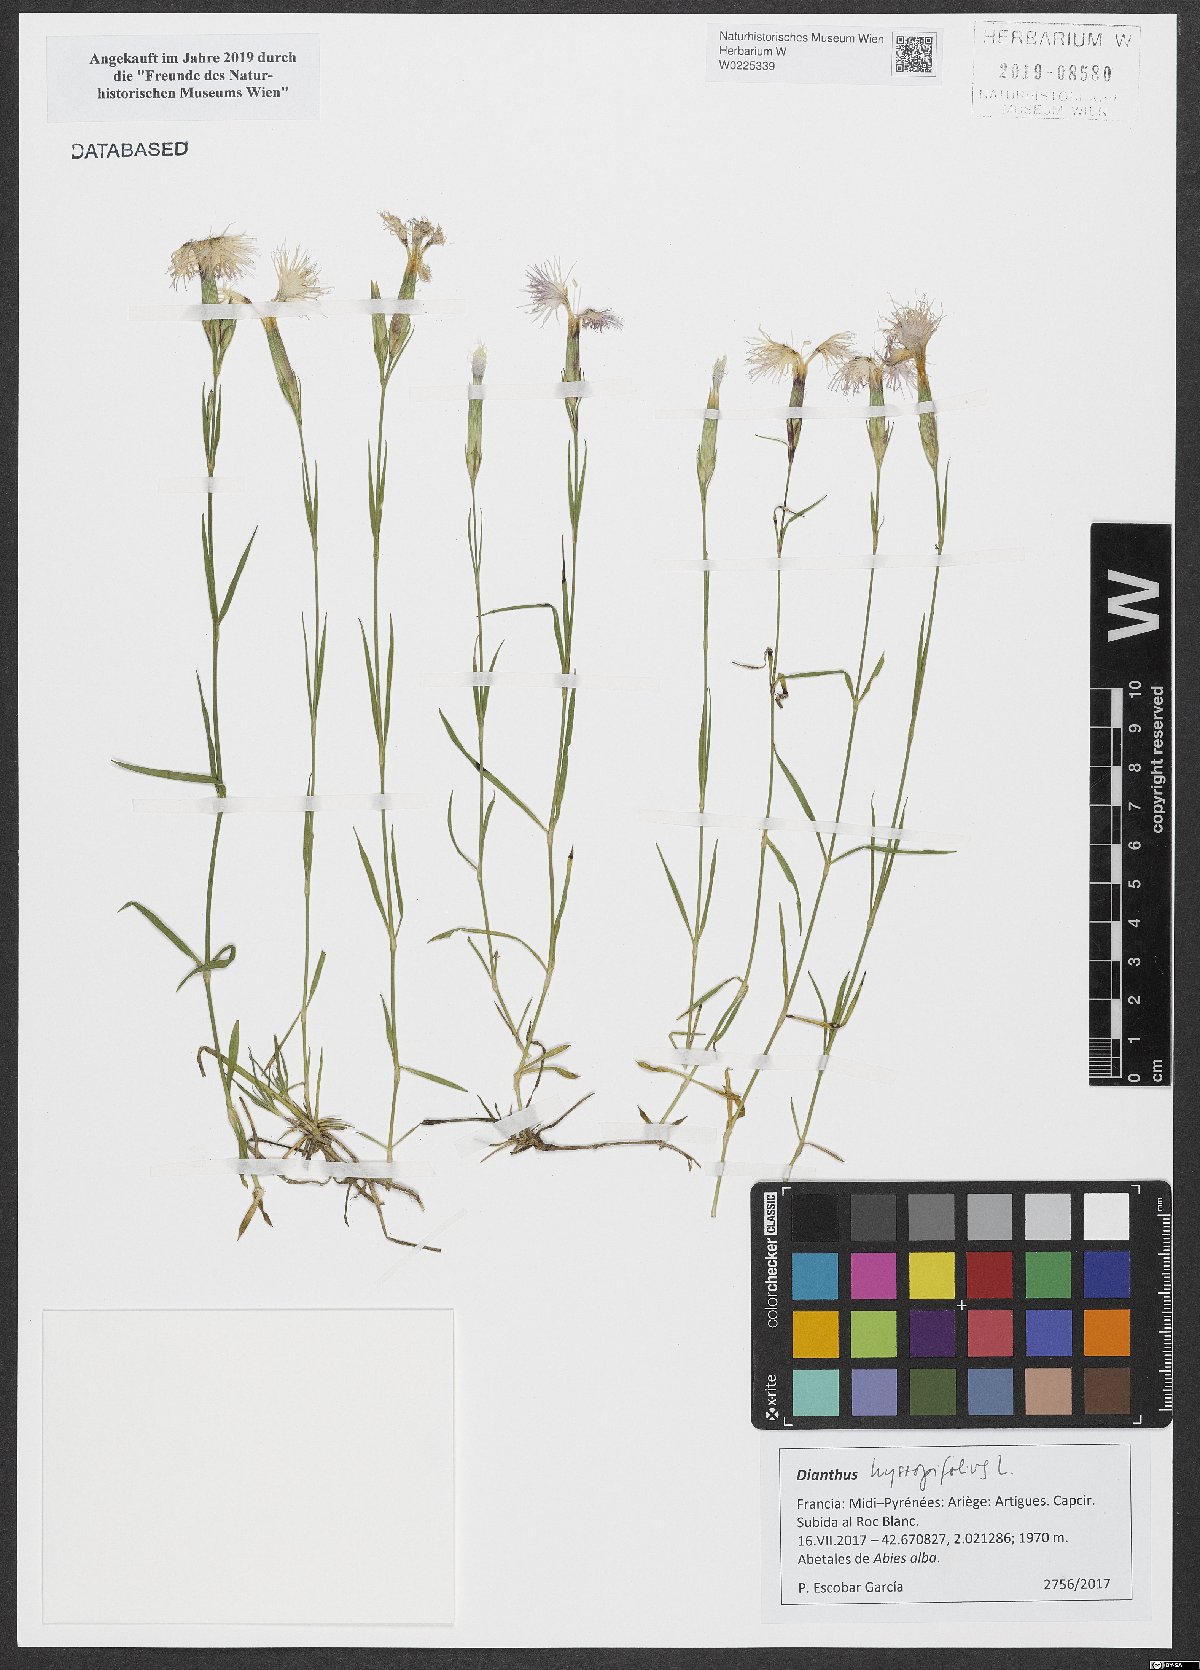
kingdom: Plantae
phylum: Tracheophyta
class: Magnoliopsida
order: Caryophyllales
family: Caryophyllaceae
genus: Dianthus
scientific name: Dianthus hyssopifolius
